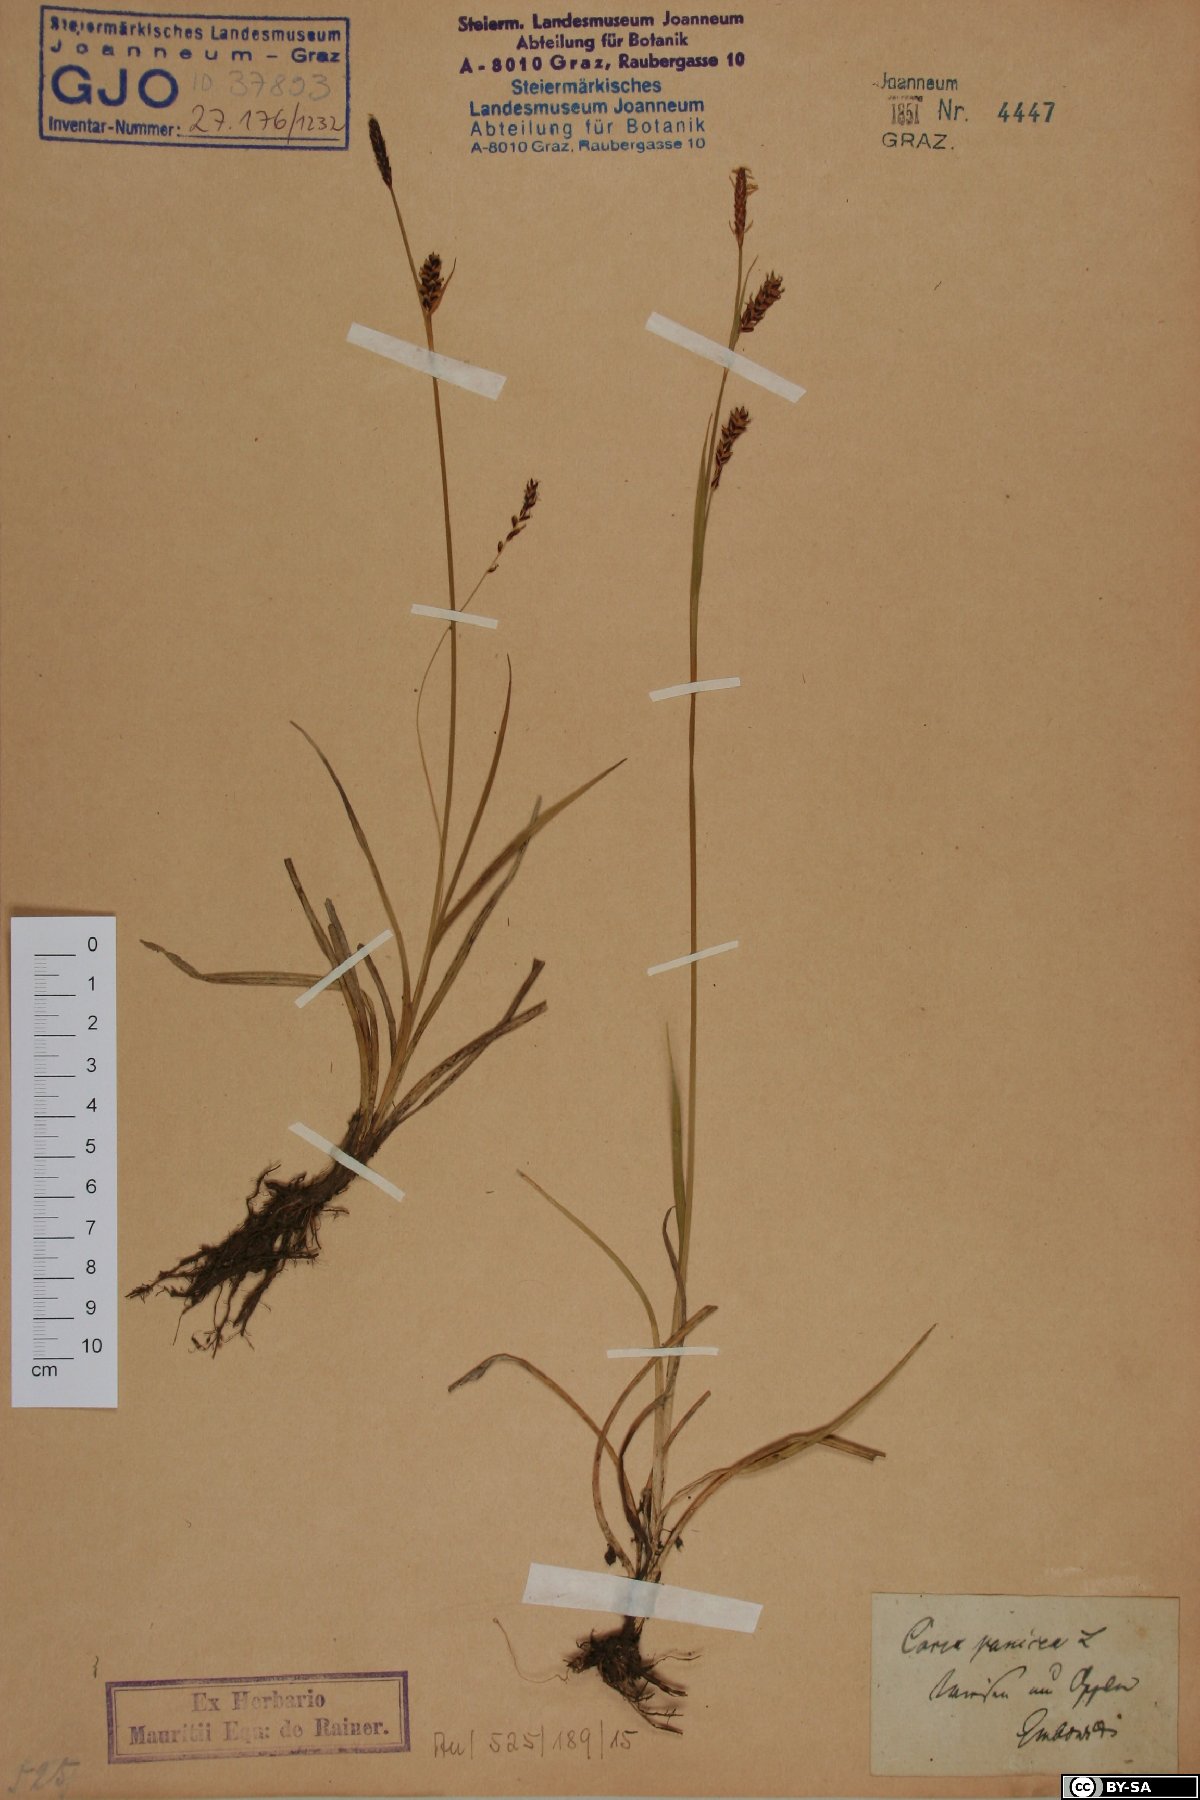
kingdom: Plantae
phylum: Tracheophyta
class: Liliopsida
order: Poales
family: Cyperaceae
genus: Carex
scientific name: Carex panicea
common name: Carnation sedge
